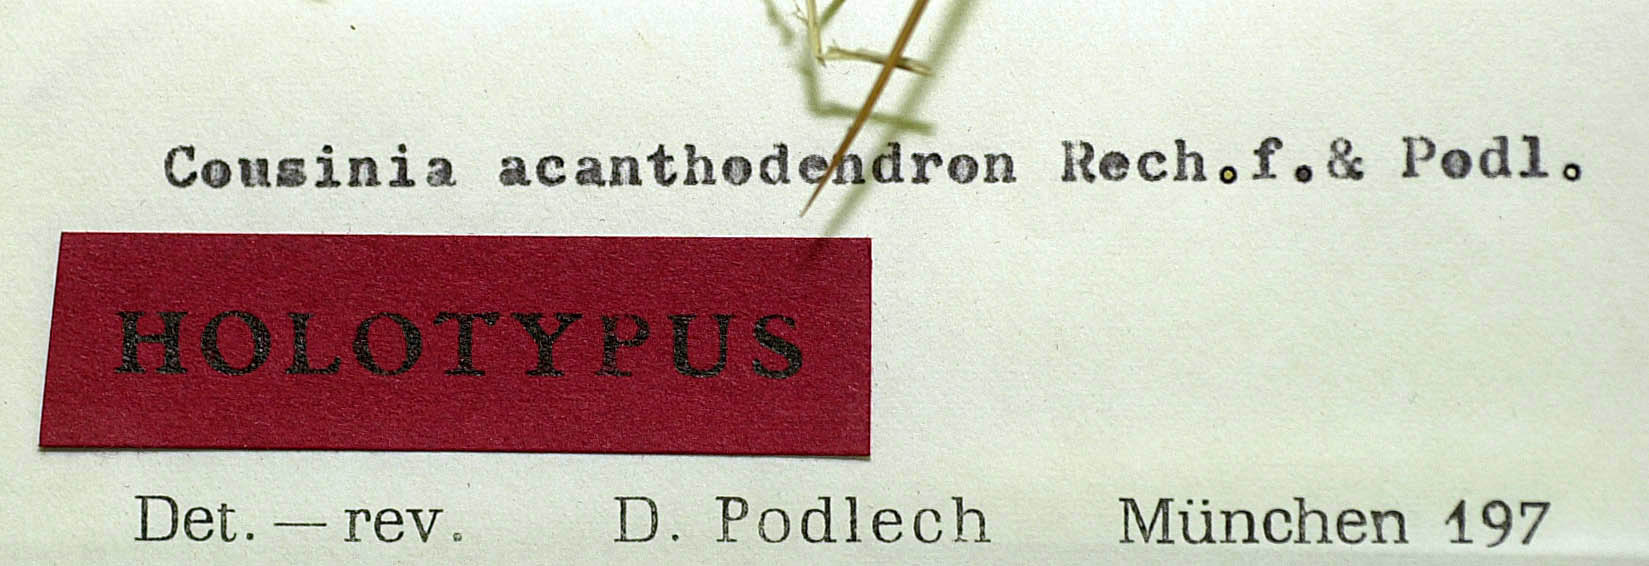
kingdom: Plantae
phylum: Tracheophyta
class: Magnoliopsida
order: Asterales
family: Asteraceae
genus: Cousinia
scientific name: Cousinia acanthodendron
